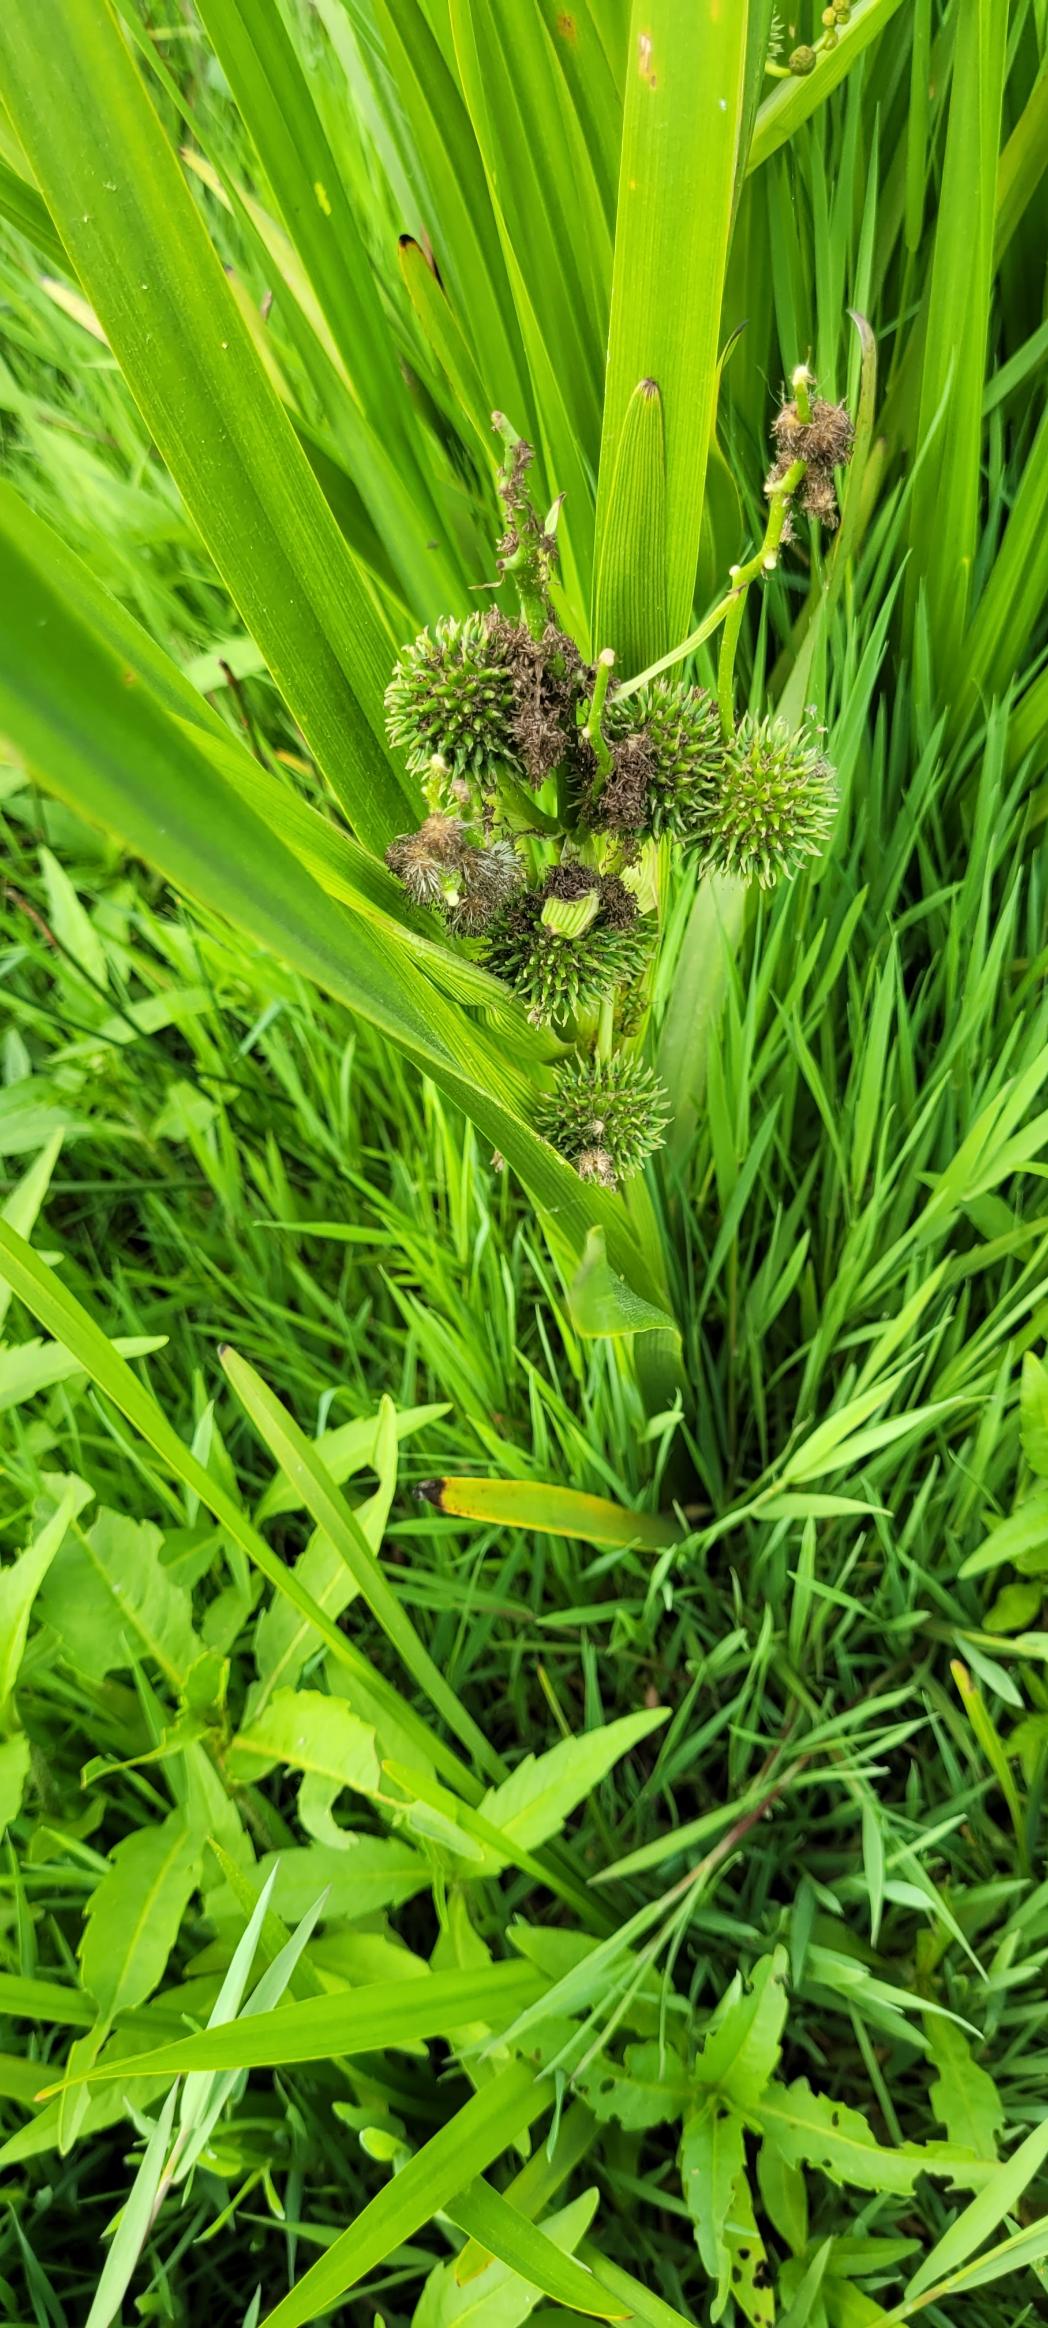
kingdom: Plantae
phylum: Tracheophyta
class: Liliopsida
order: Poales
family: Typhaceae
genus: Sparganium
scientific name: Sparganium erectum
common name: Grenet pindsvineknop
